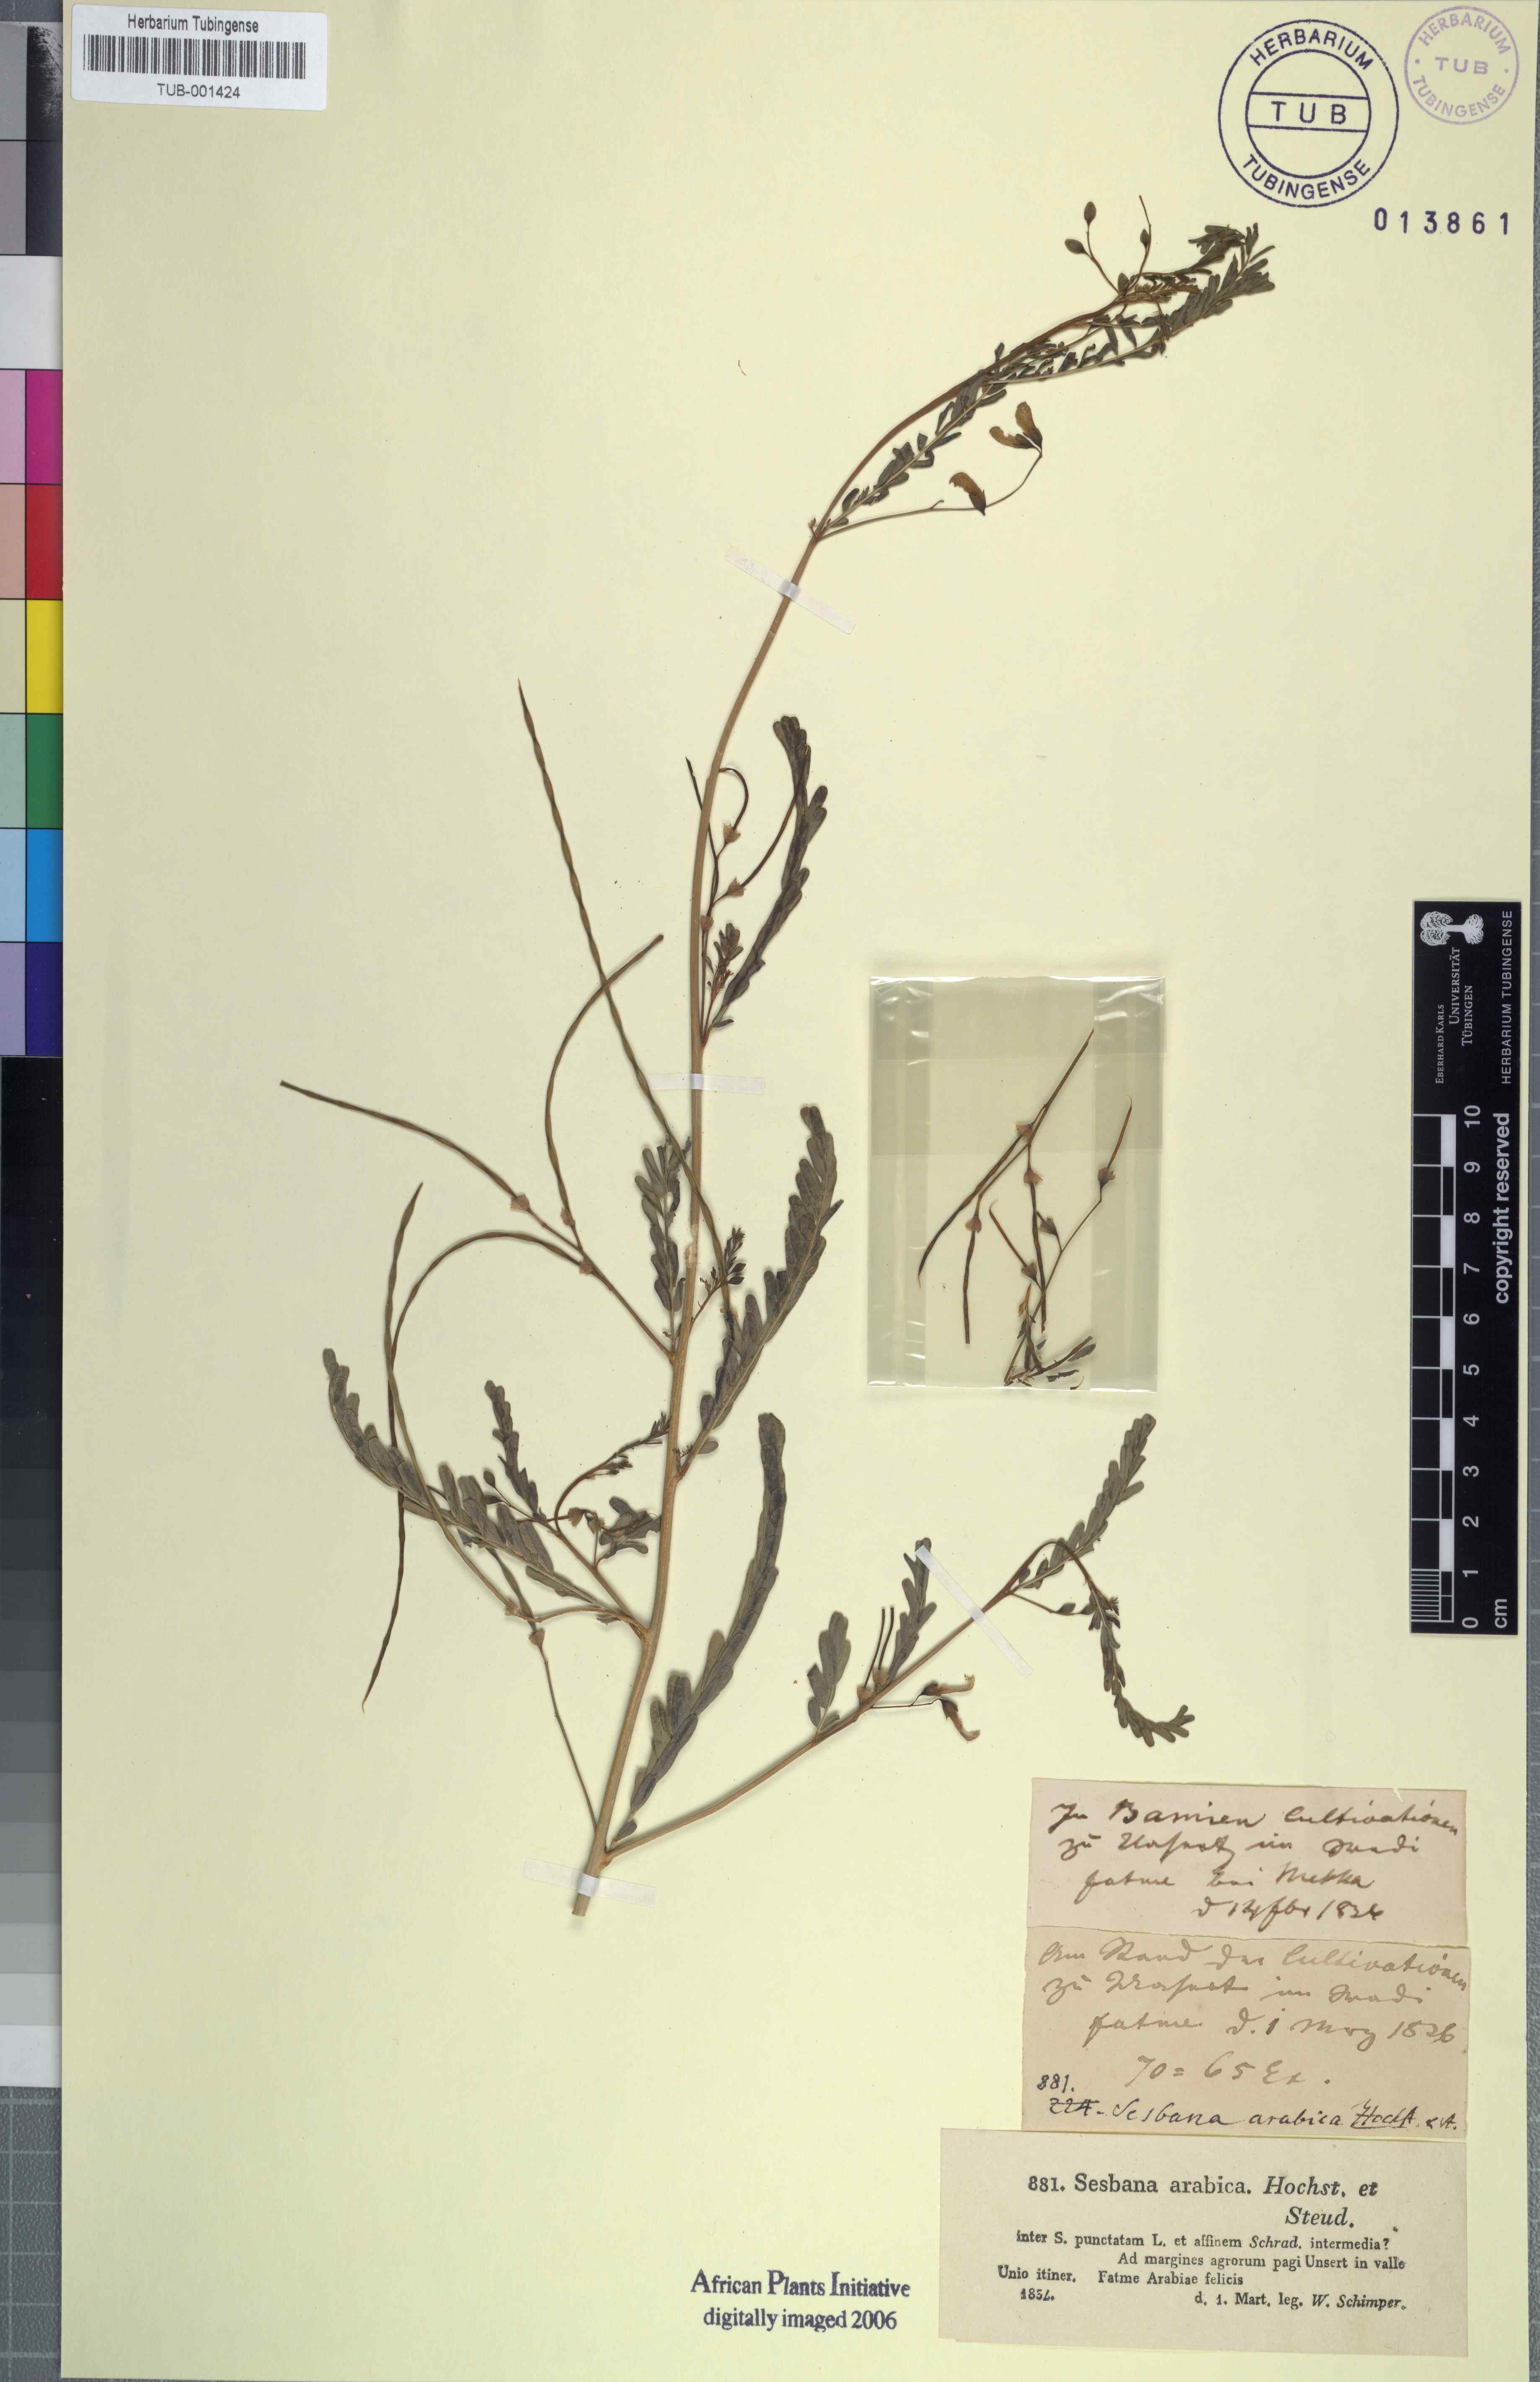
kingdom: Plantae
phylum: Tracheophyta
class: Magnoliopsida
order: Fabales
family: Fabaceae
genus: Sesbania
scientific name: Sesbania leptocarpa
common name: Riverhemp
